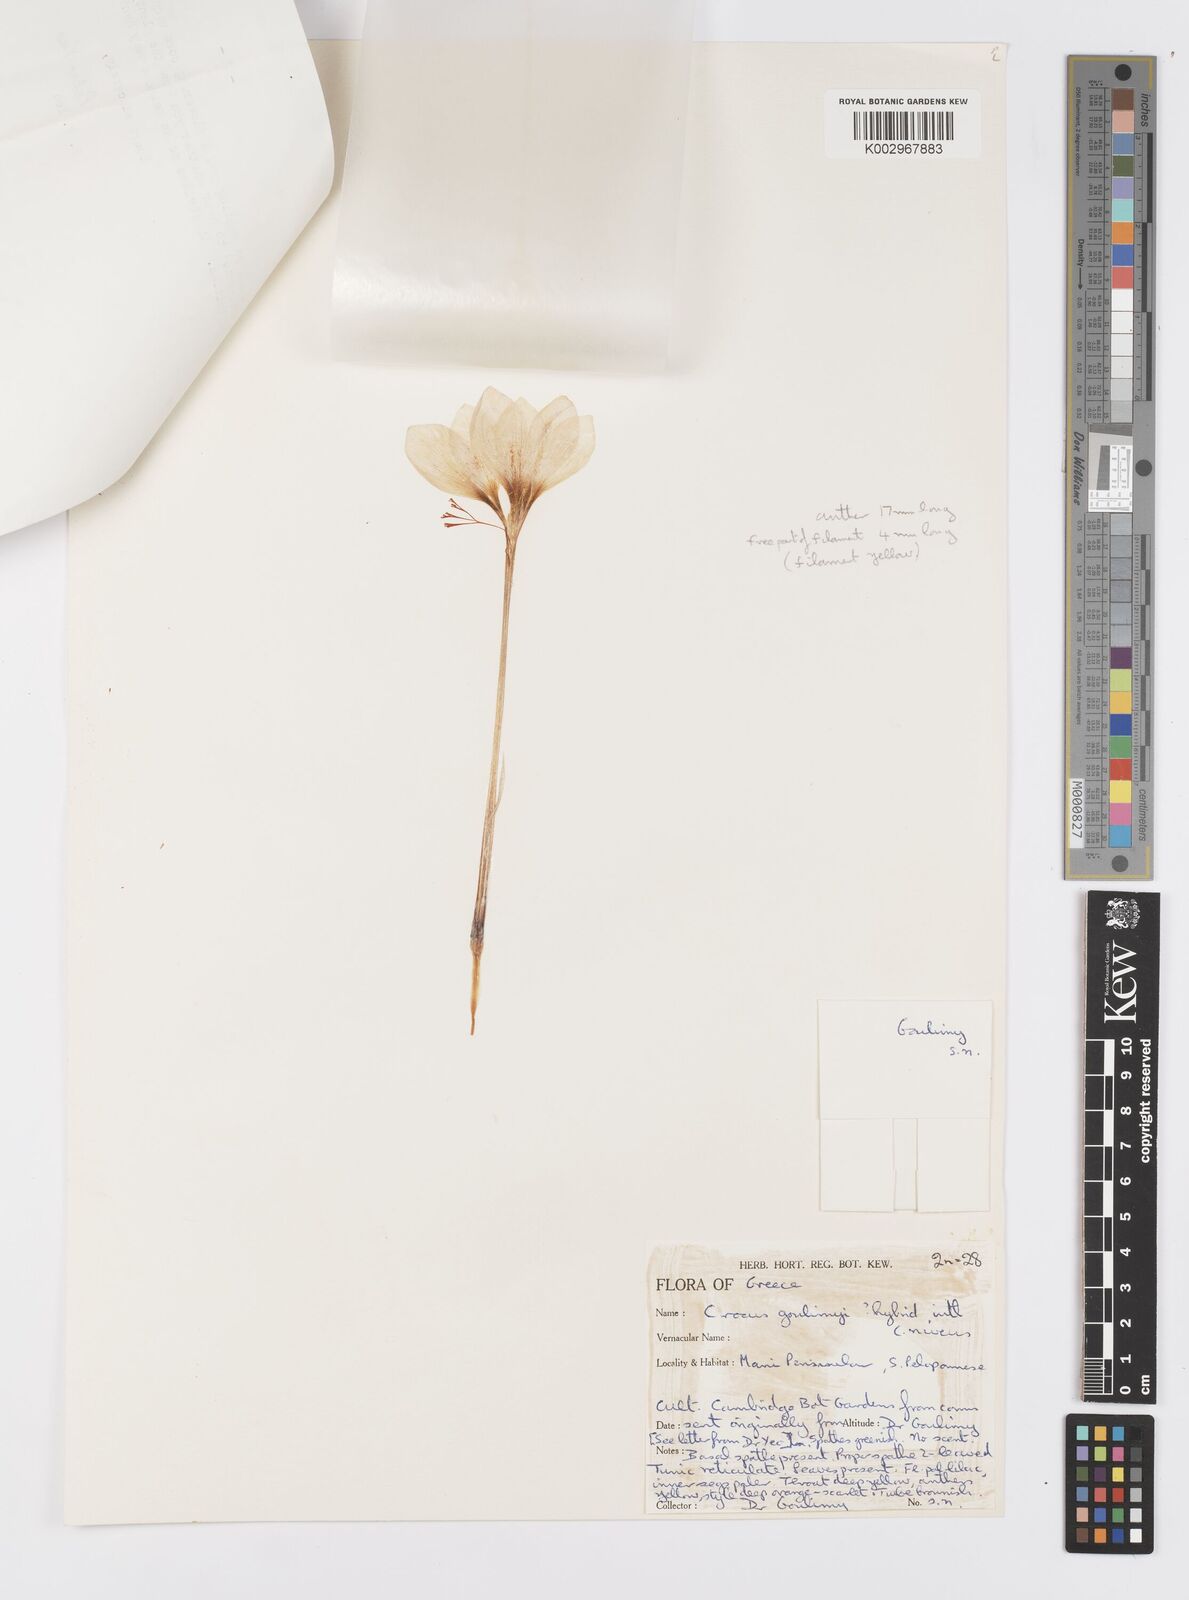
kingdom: Plantae
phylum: Tracheophyta
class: Liliopsida
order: Asparagales
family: Iridaceae
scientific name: Iridaceae
